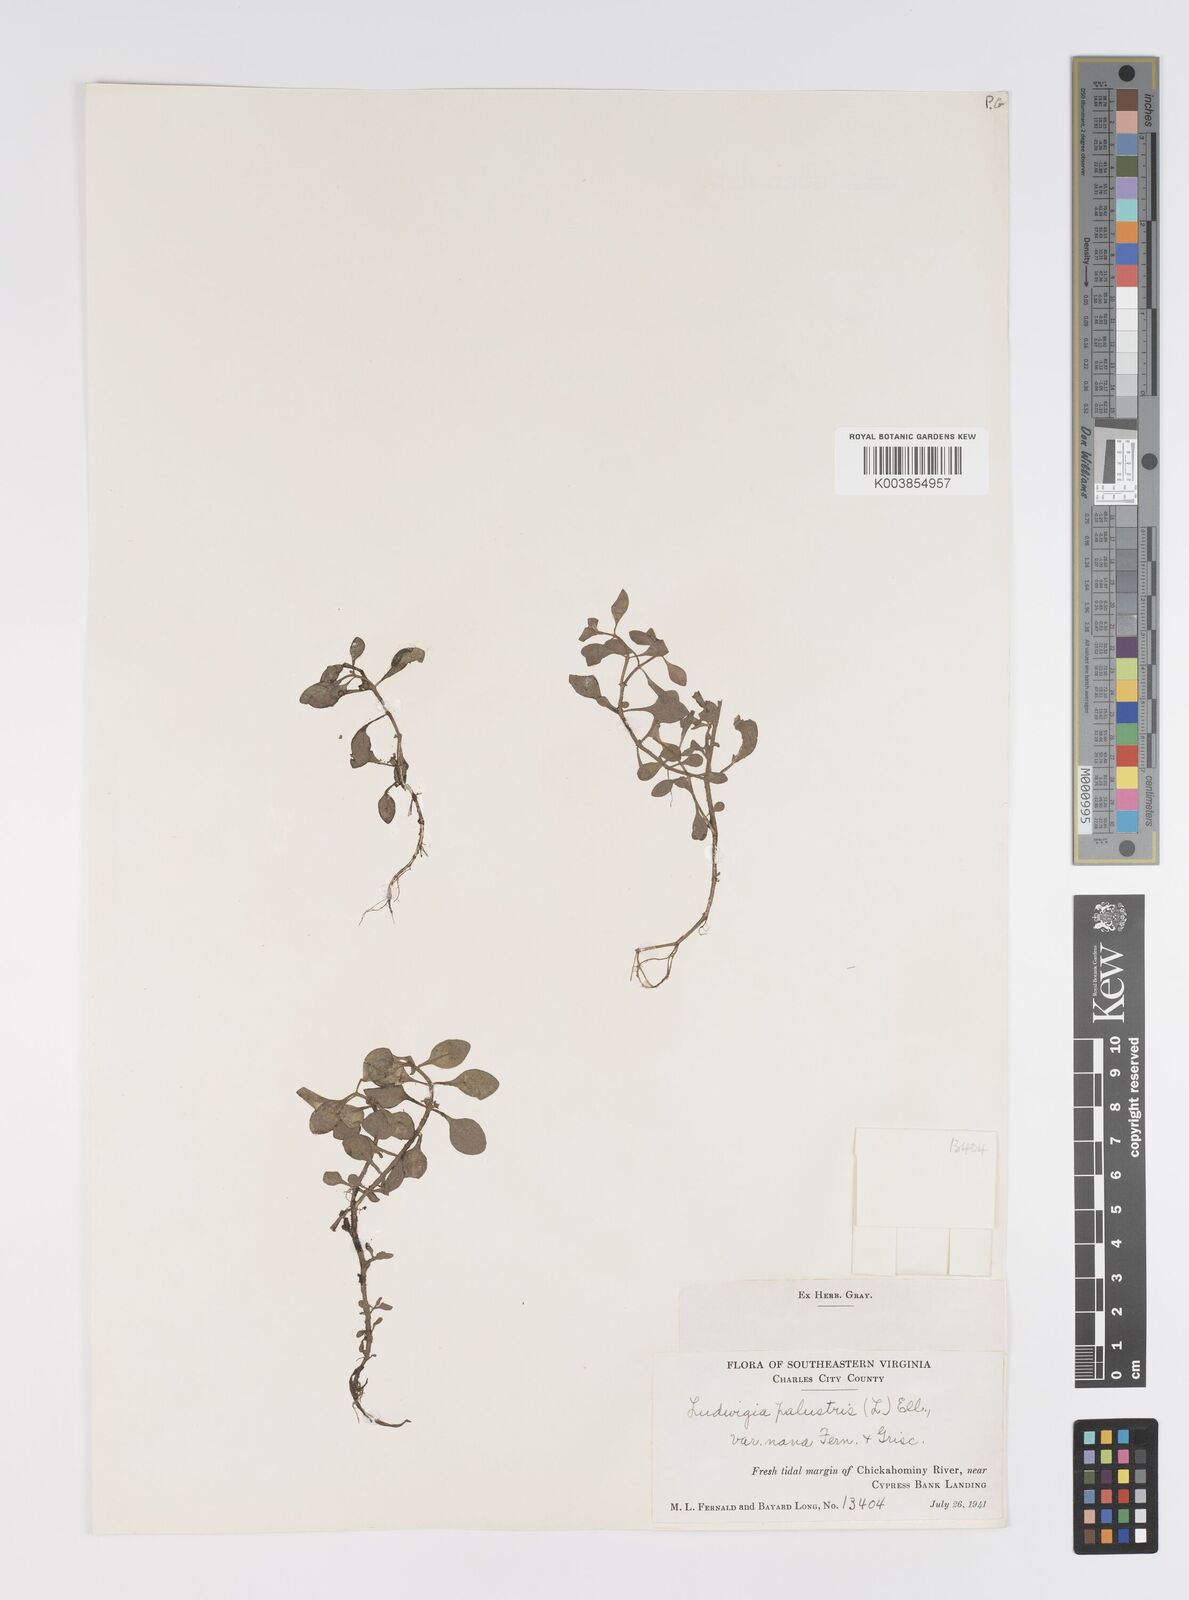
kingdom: Plantae
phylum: Tracheophyta
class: Magnoliopsida
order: Myrtales
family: Onagraceae
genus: Ludwigia
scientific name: Ludwigia palustris
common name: Hampshire-purslane
